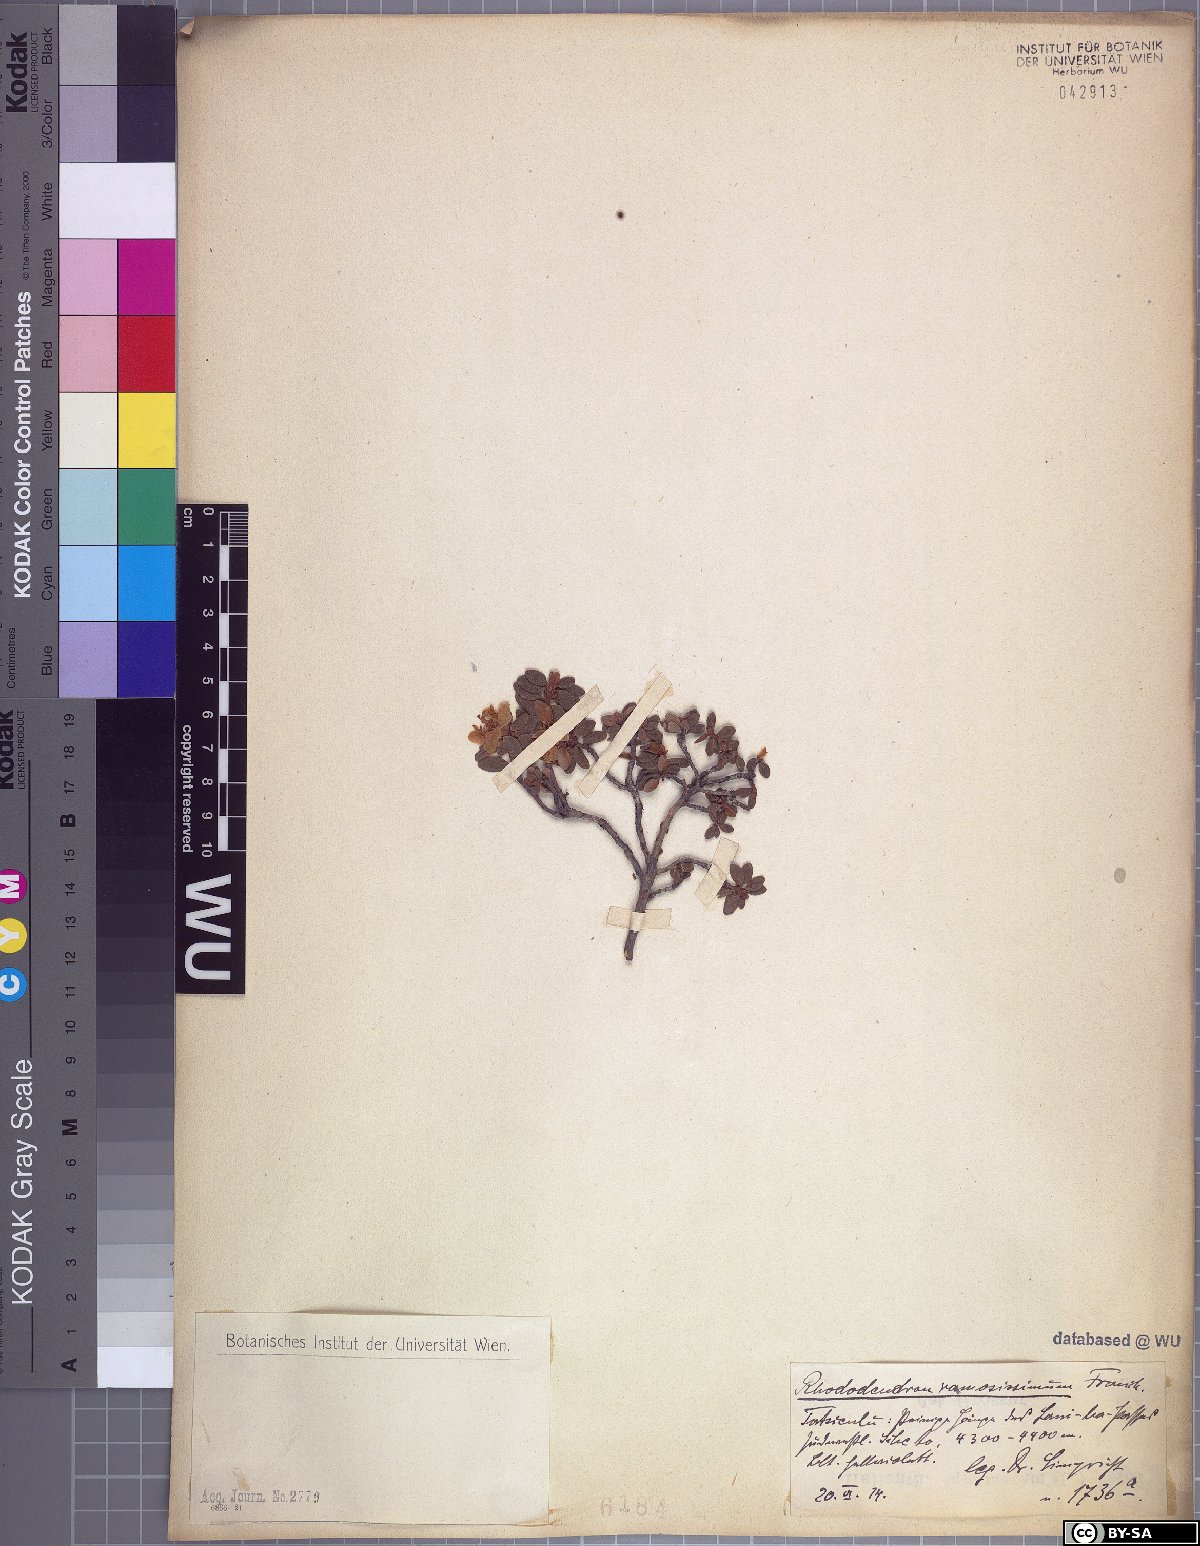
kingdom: Plantae
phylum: Tracheophyta
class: Magnoliopsida
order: Ericales
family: Ericaceae
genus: Rhododendron
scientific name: Rhododendron nivale
